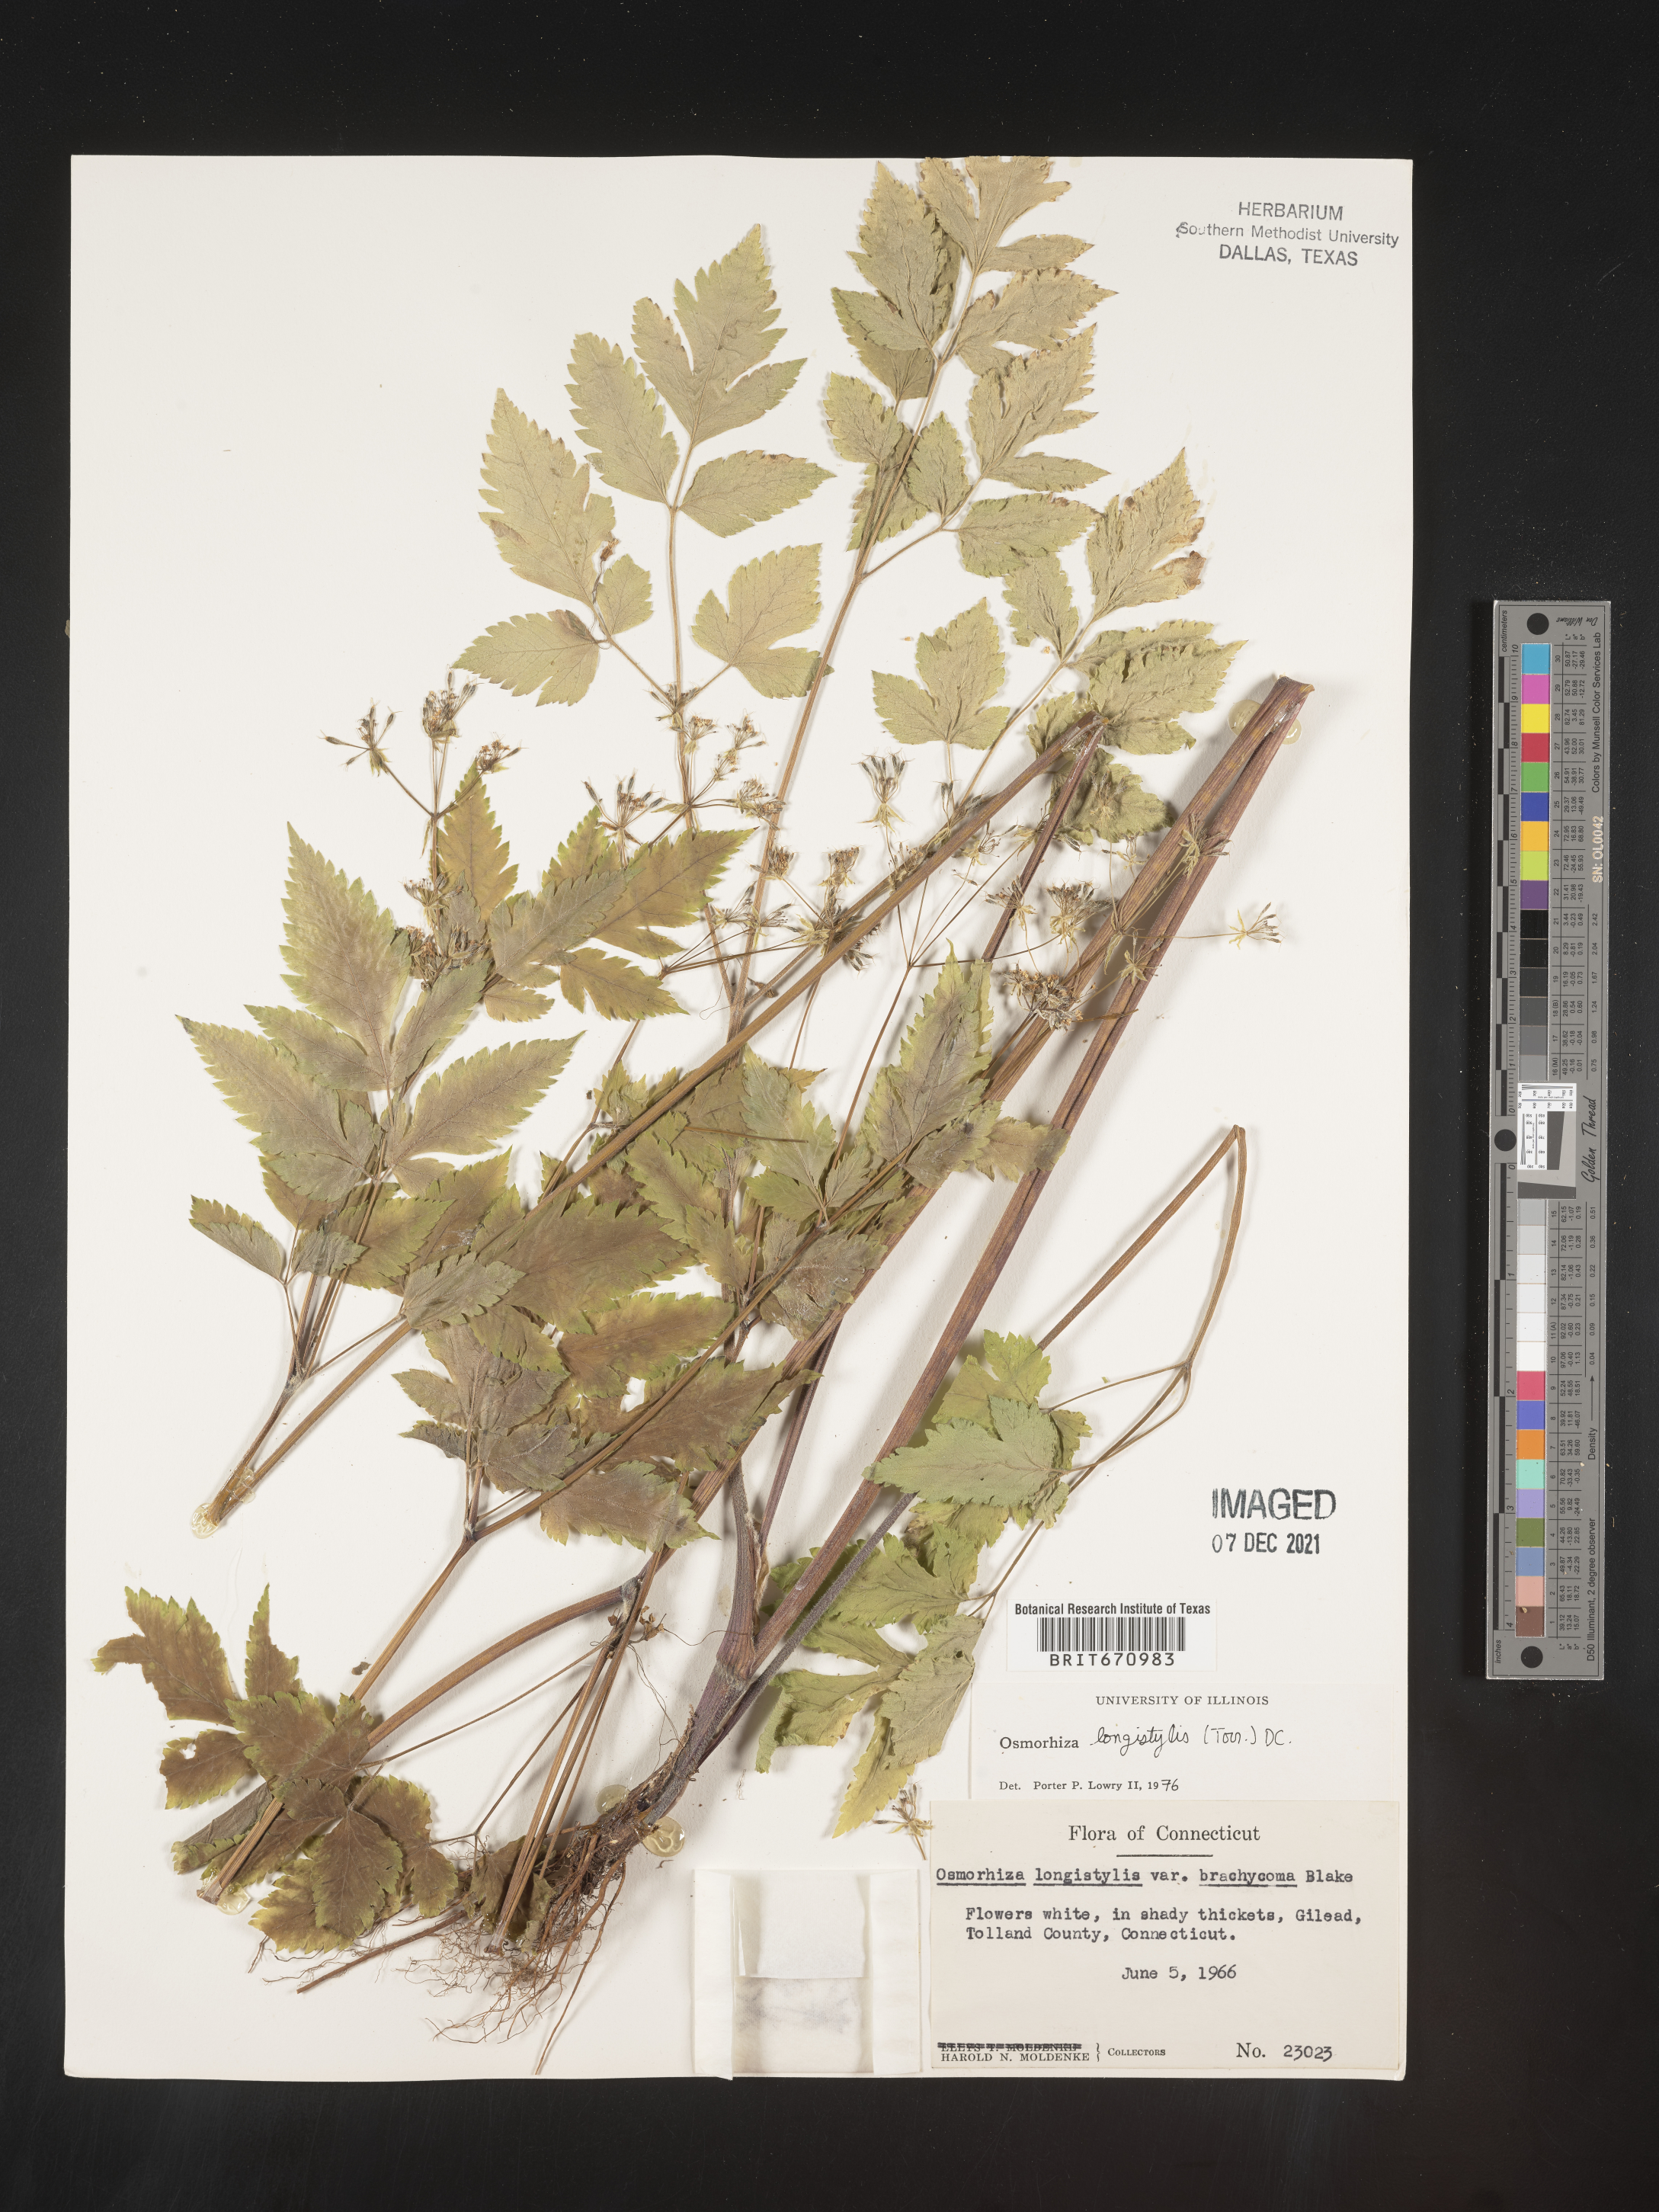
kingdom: Plantae
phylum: Tracheophyta
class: Magnoliopsida
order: Apiales
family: Apiaceae
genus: Osmorhiza
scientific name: Osmorhiza longistylis
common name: Smooth sweet cicely
